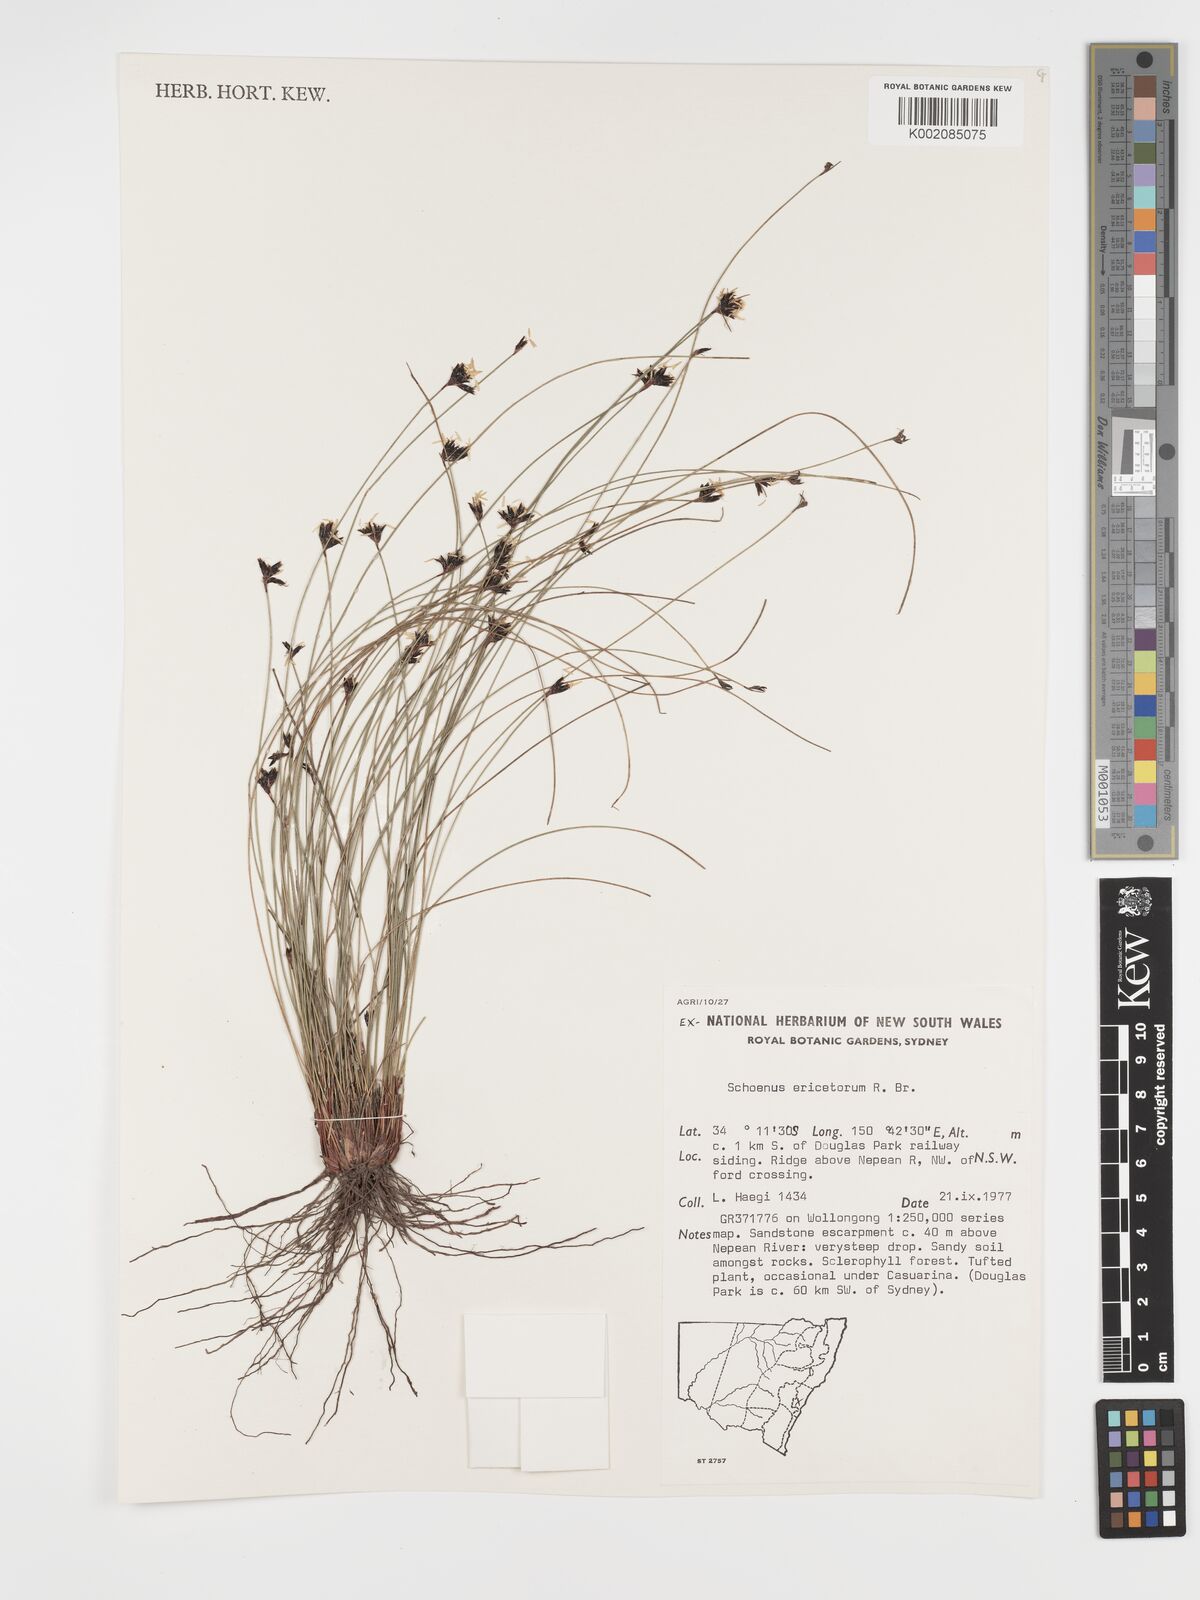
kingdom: Plantae
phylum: Tracheophyta
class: Liliopsida
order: Poales
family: Cyperaceae
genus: Schoenus
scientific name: Schoenus ericetorum
